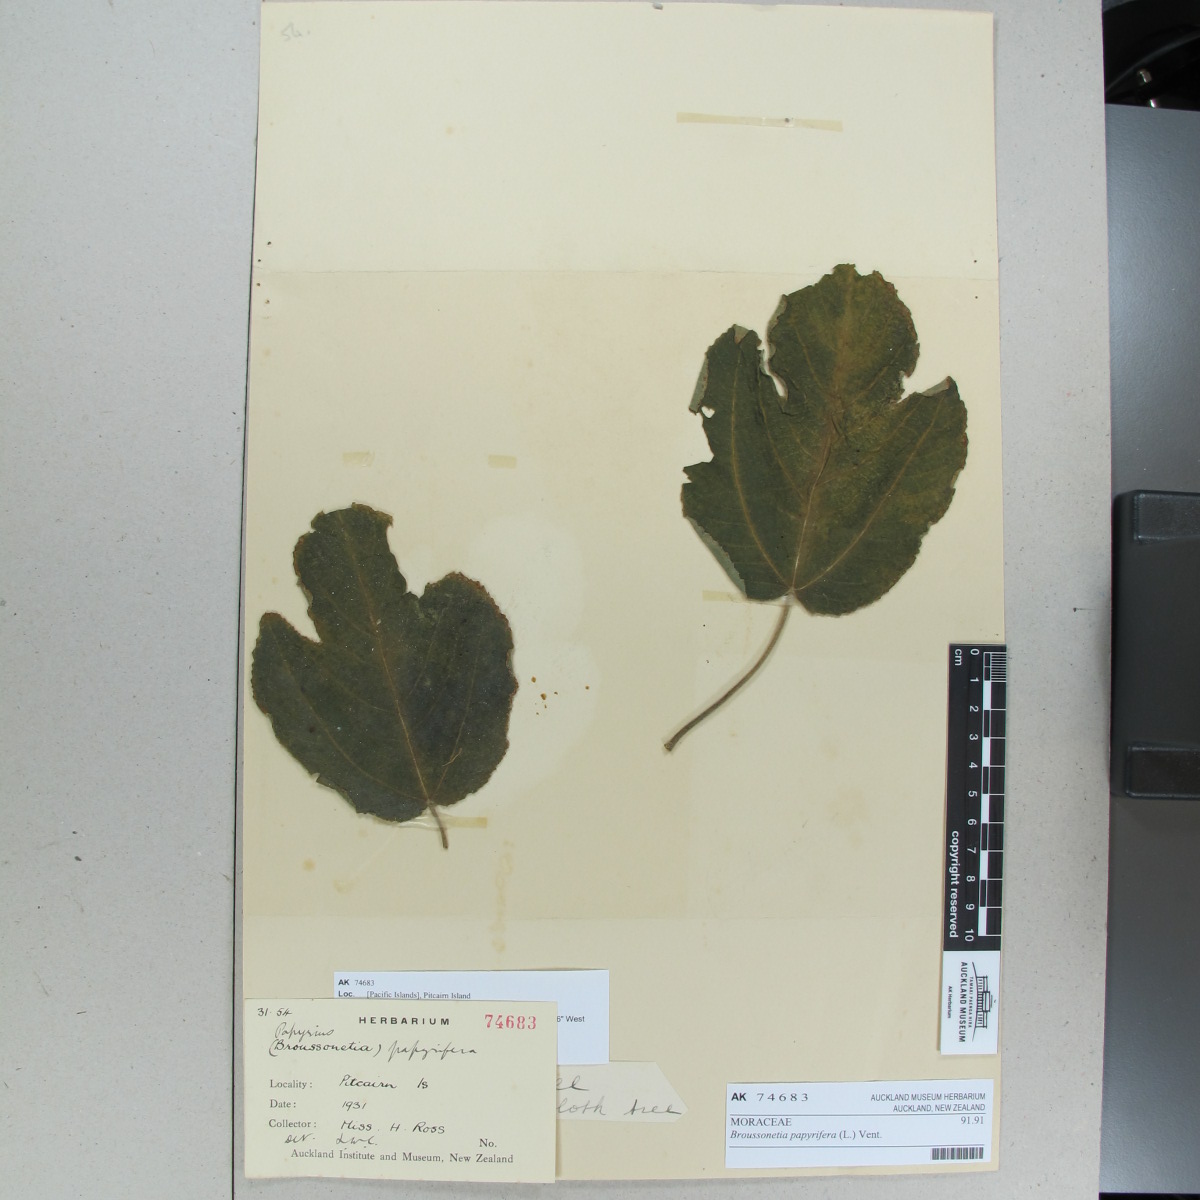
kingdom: Plantae
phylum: Tracheophyta
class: Magnoliopsida
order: Rosales
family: Moraceae
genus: Broussonetia
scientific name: Broussonetia papyrifera
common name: Paper mulberry
